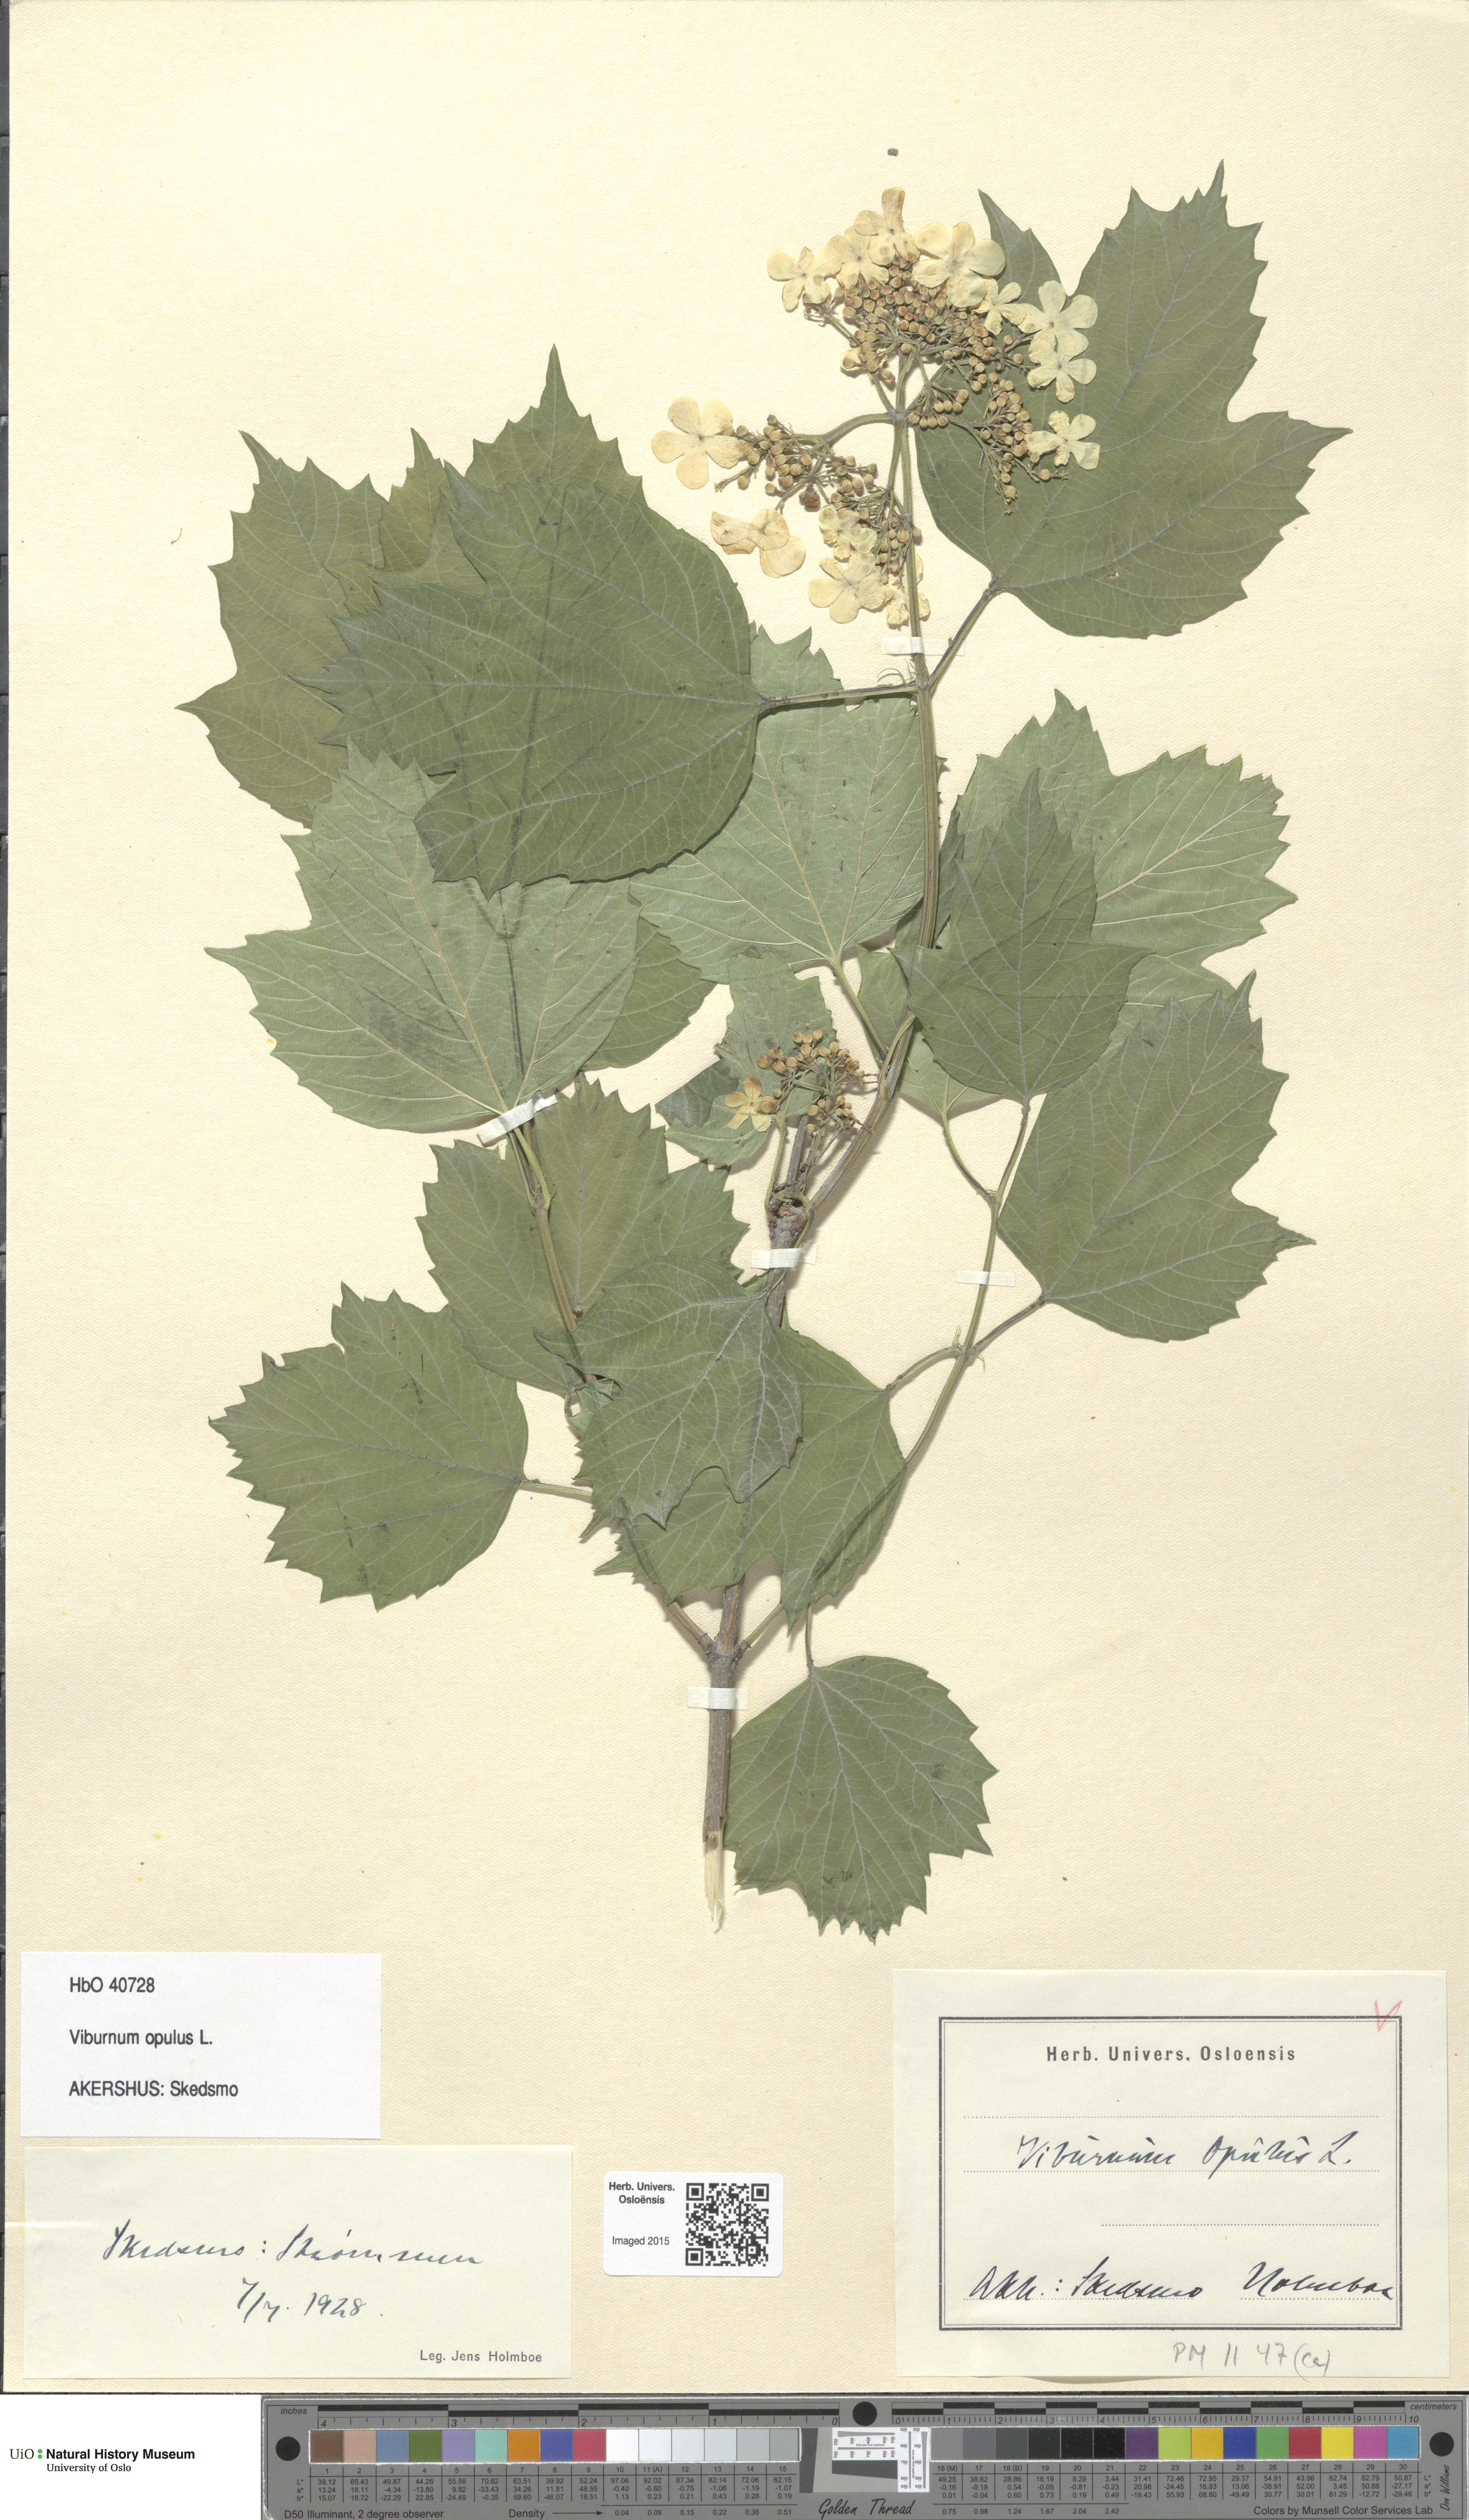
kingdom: Plantae
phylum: Tracheophyta
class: Magnoliopsida
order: Dipsacales
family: Viburnaceae
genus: Viburnum
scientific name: Viburnum opulus
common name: Guelder-rose
